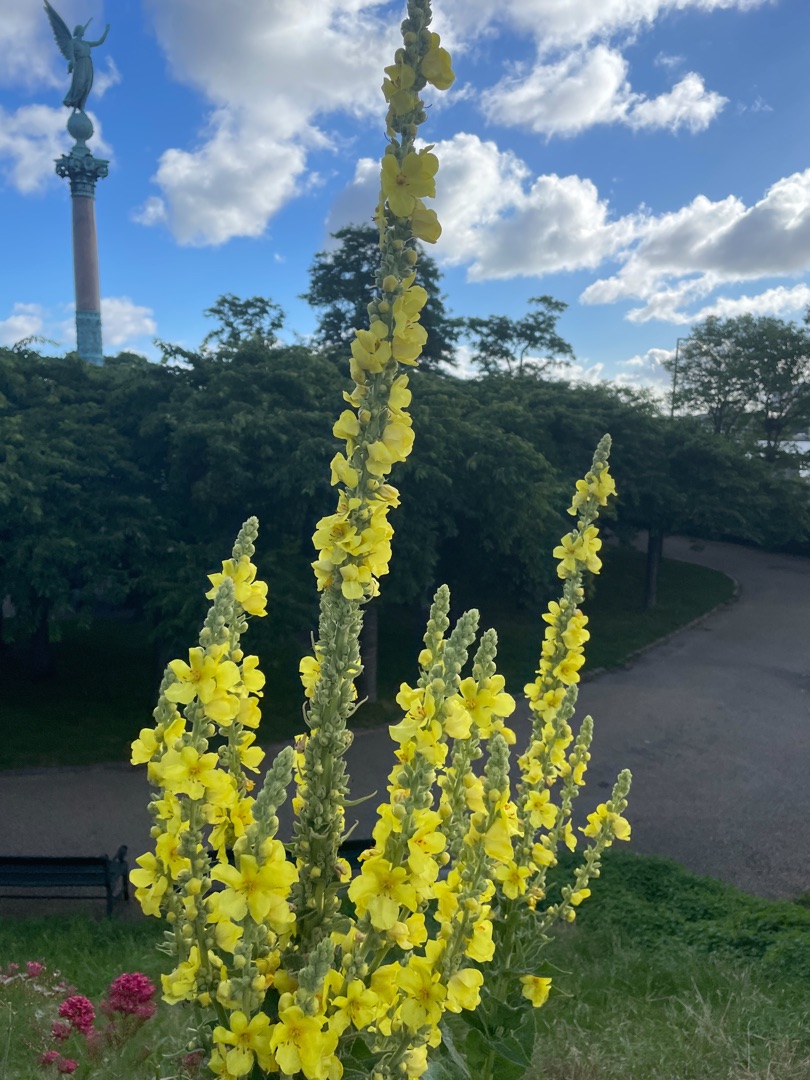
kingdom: Plantae
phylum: Tracheophyta
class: Magnoliopsida
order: Lamiales
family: Scrophulariaceae
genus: Verbascum
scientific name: Verbascum densiflorum
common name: Uldbladet kongelys
